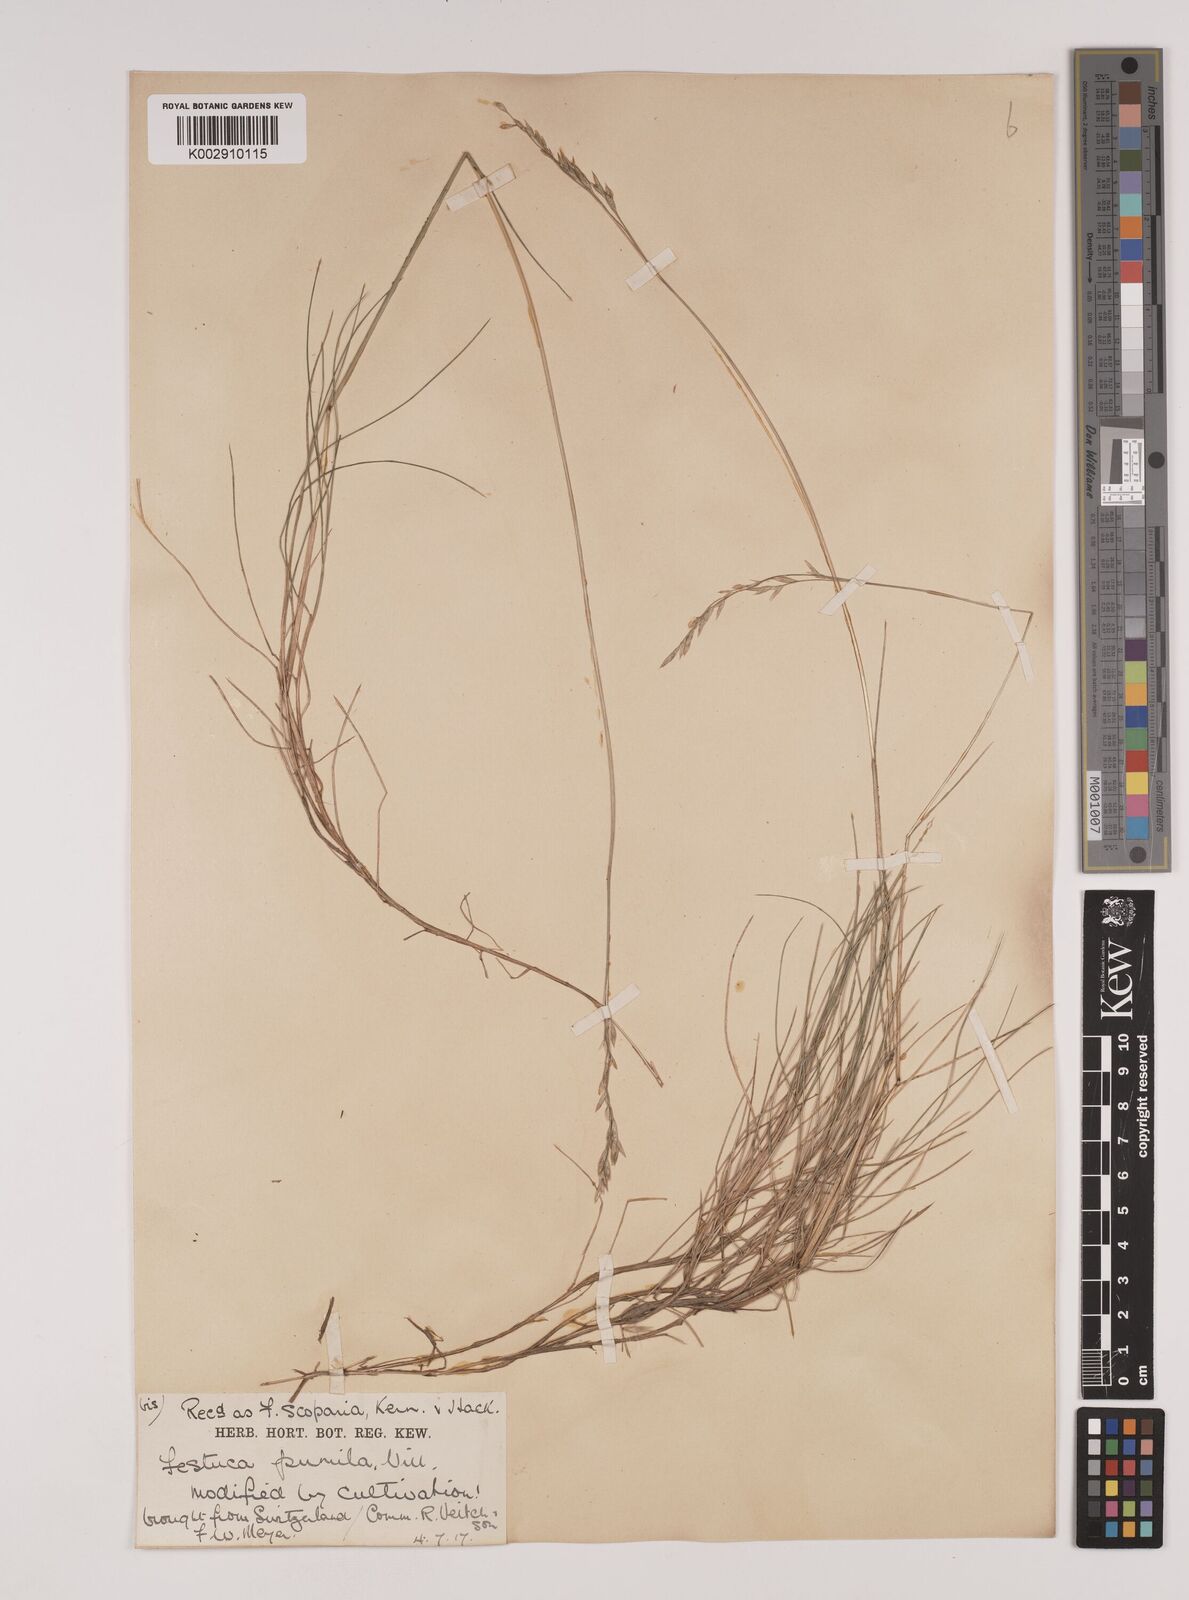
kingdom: Plantae
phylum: Tracheophyta
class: Liliopsida
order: Poales
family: Poaceae
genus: Festuca
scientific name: Festuca
